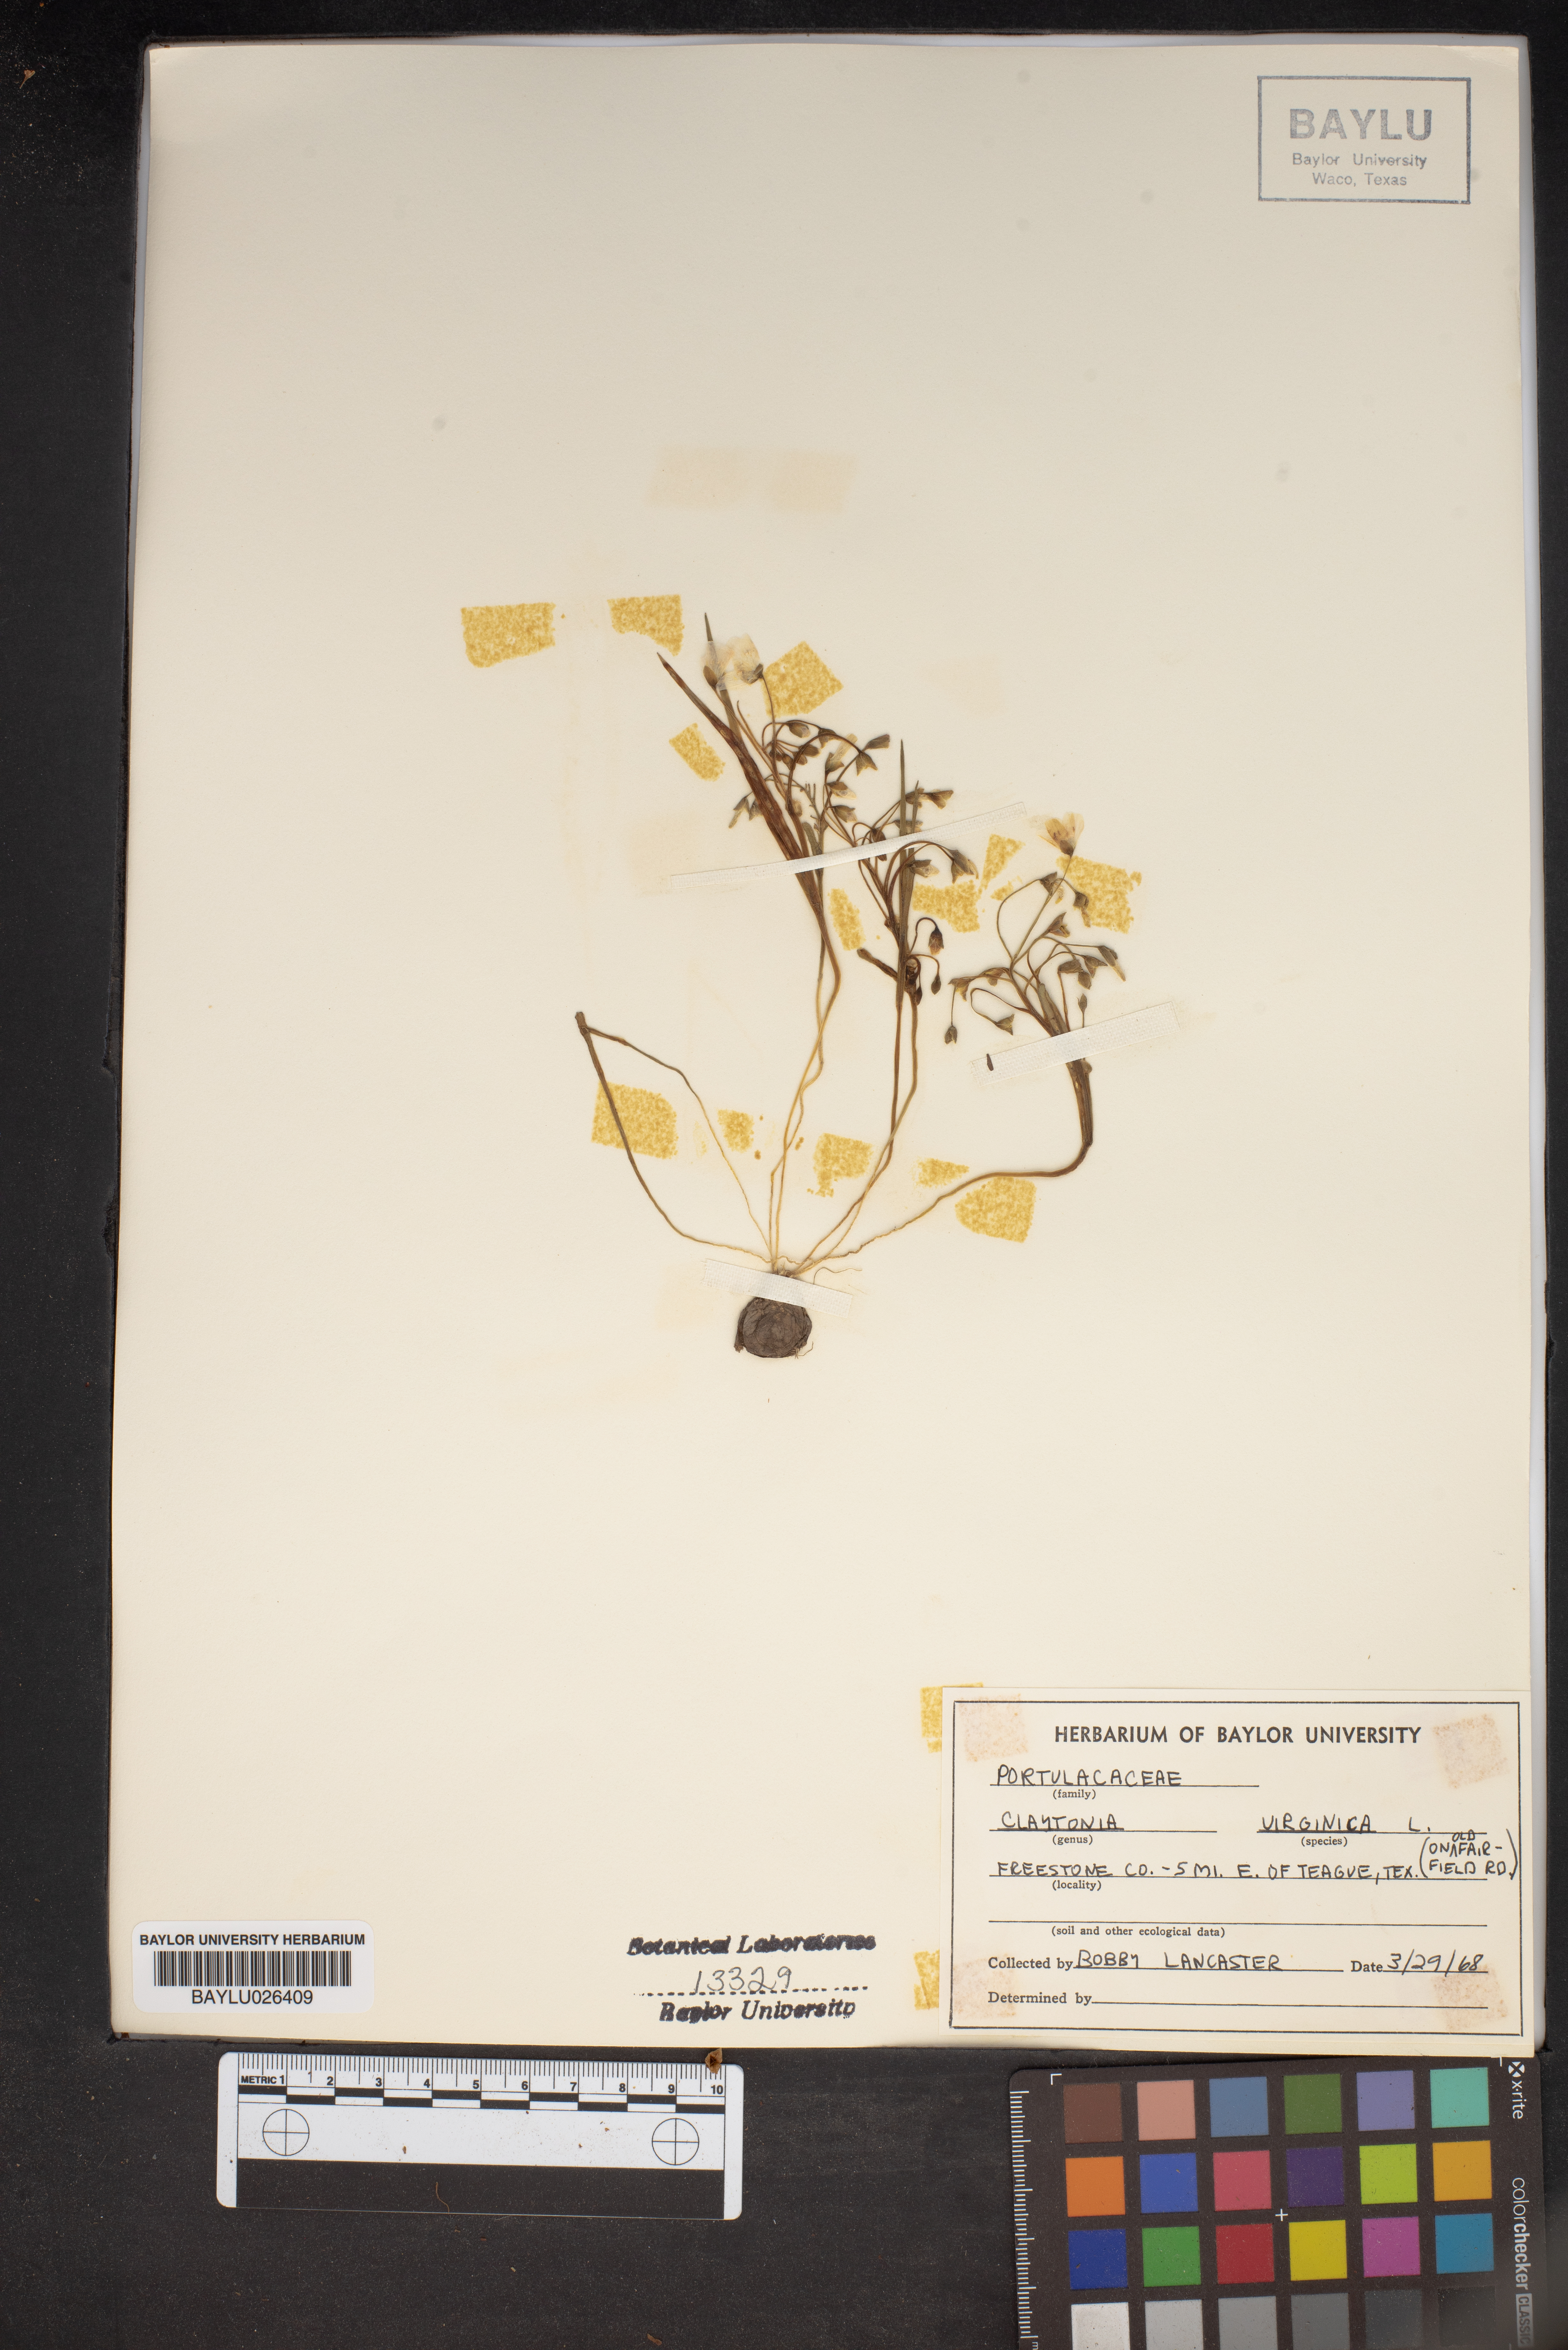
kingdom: Plantae
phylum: Tracheophyta
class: Magnoliopsida
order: Caryophyllales
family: Montiaceae
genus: Claytonia
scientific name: Claytonia virginica
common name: Virginia springbeauty
